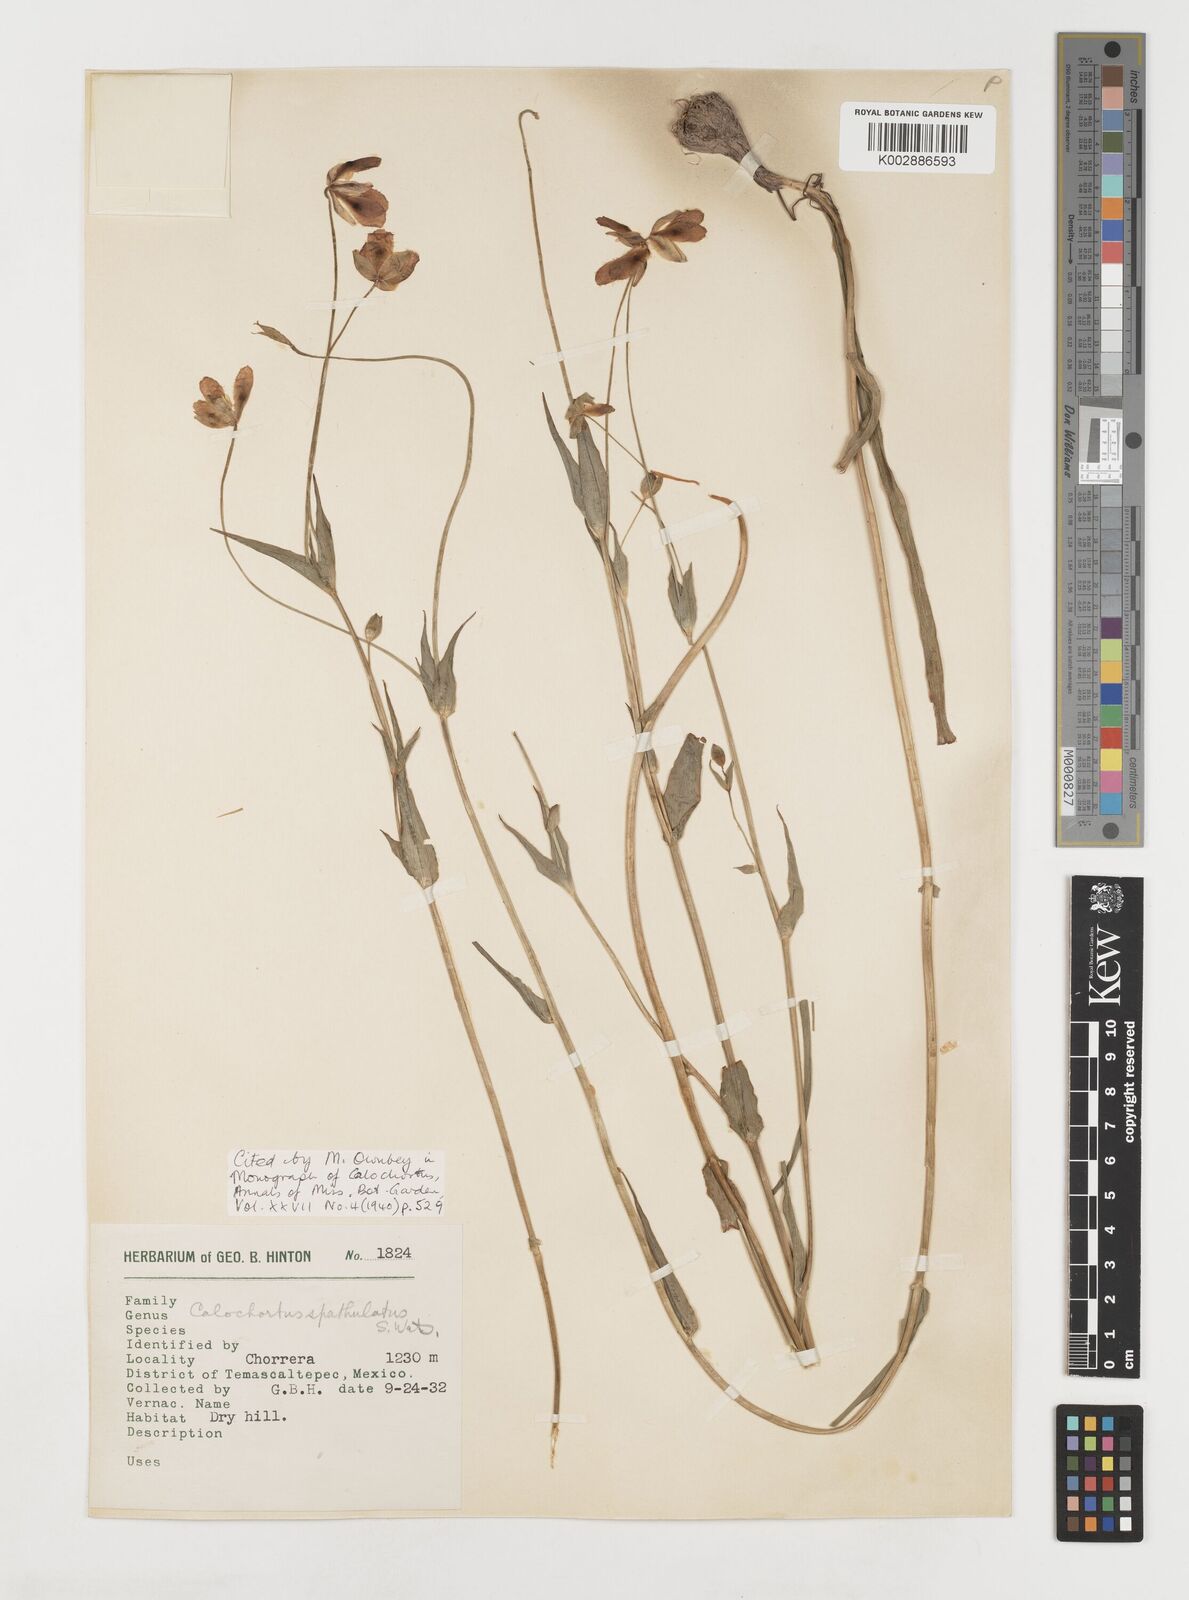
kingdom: Plantae
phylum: Tracheophyta
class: Liliopsida
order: Liliales
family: Liliaceae
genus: Calochortus
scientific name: Calochortus fuscus
